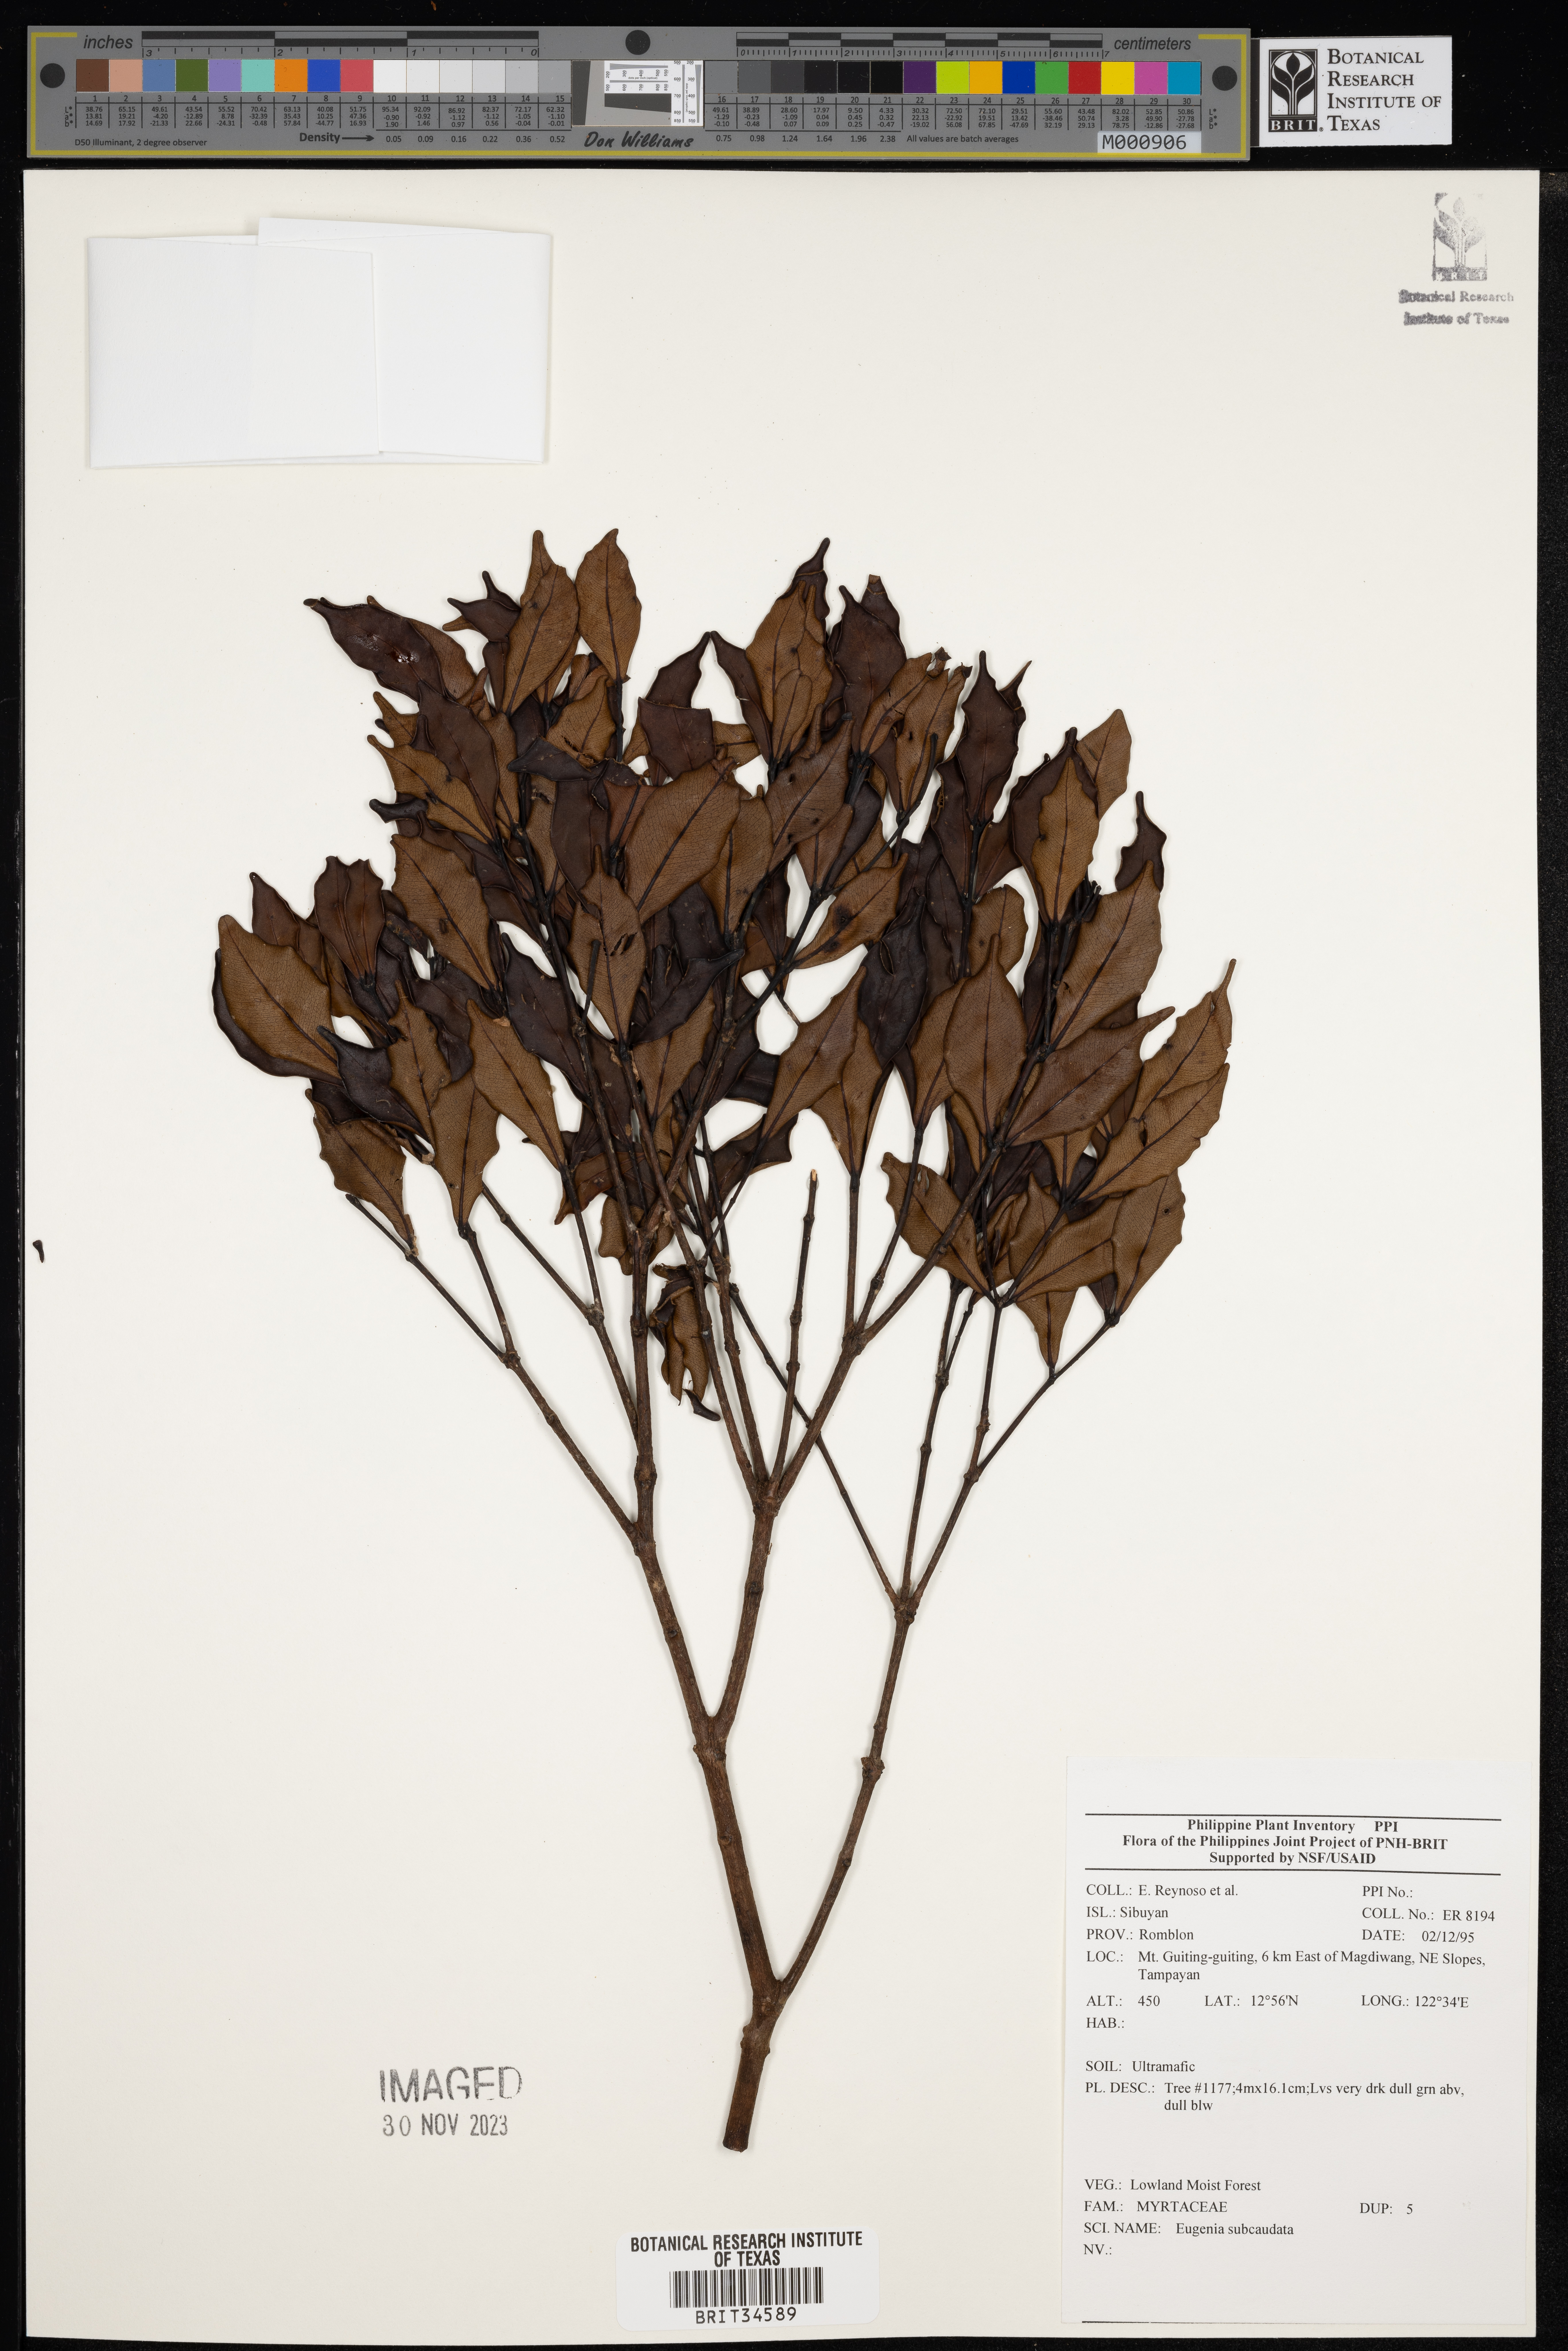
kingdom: Plantae
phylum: Tracheophyta
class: Magnoliopsida
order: Myrtales
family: Myrtaceae
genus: Eugenia
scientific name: Eugenia
